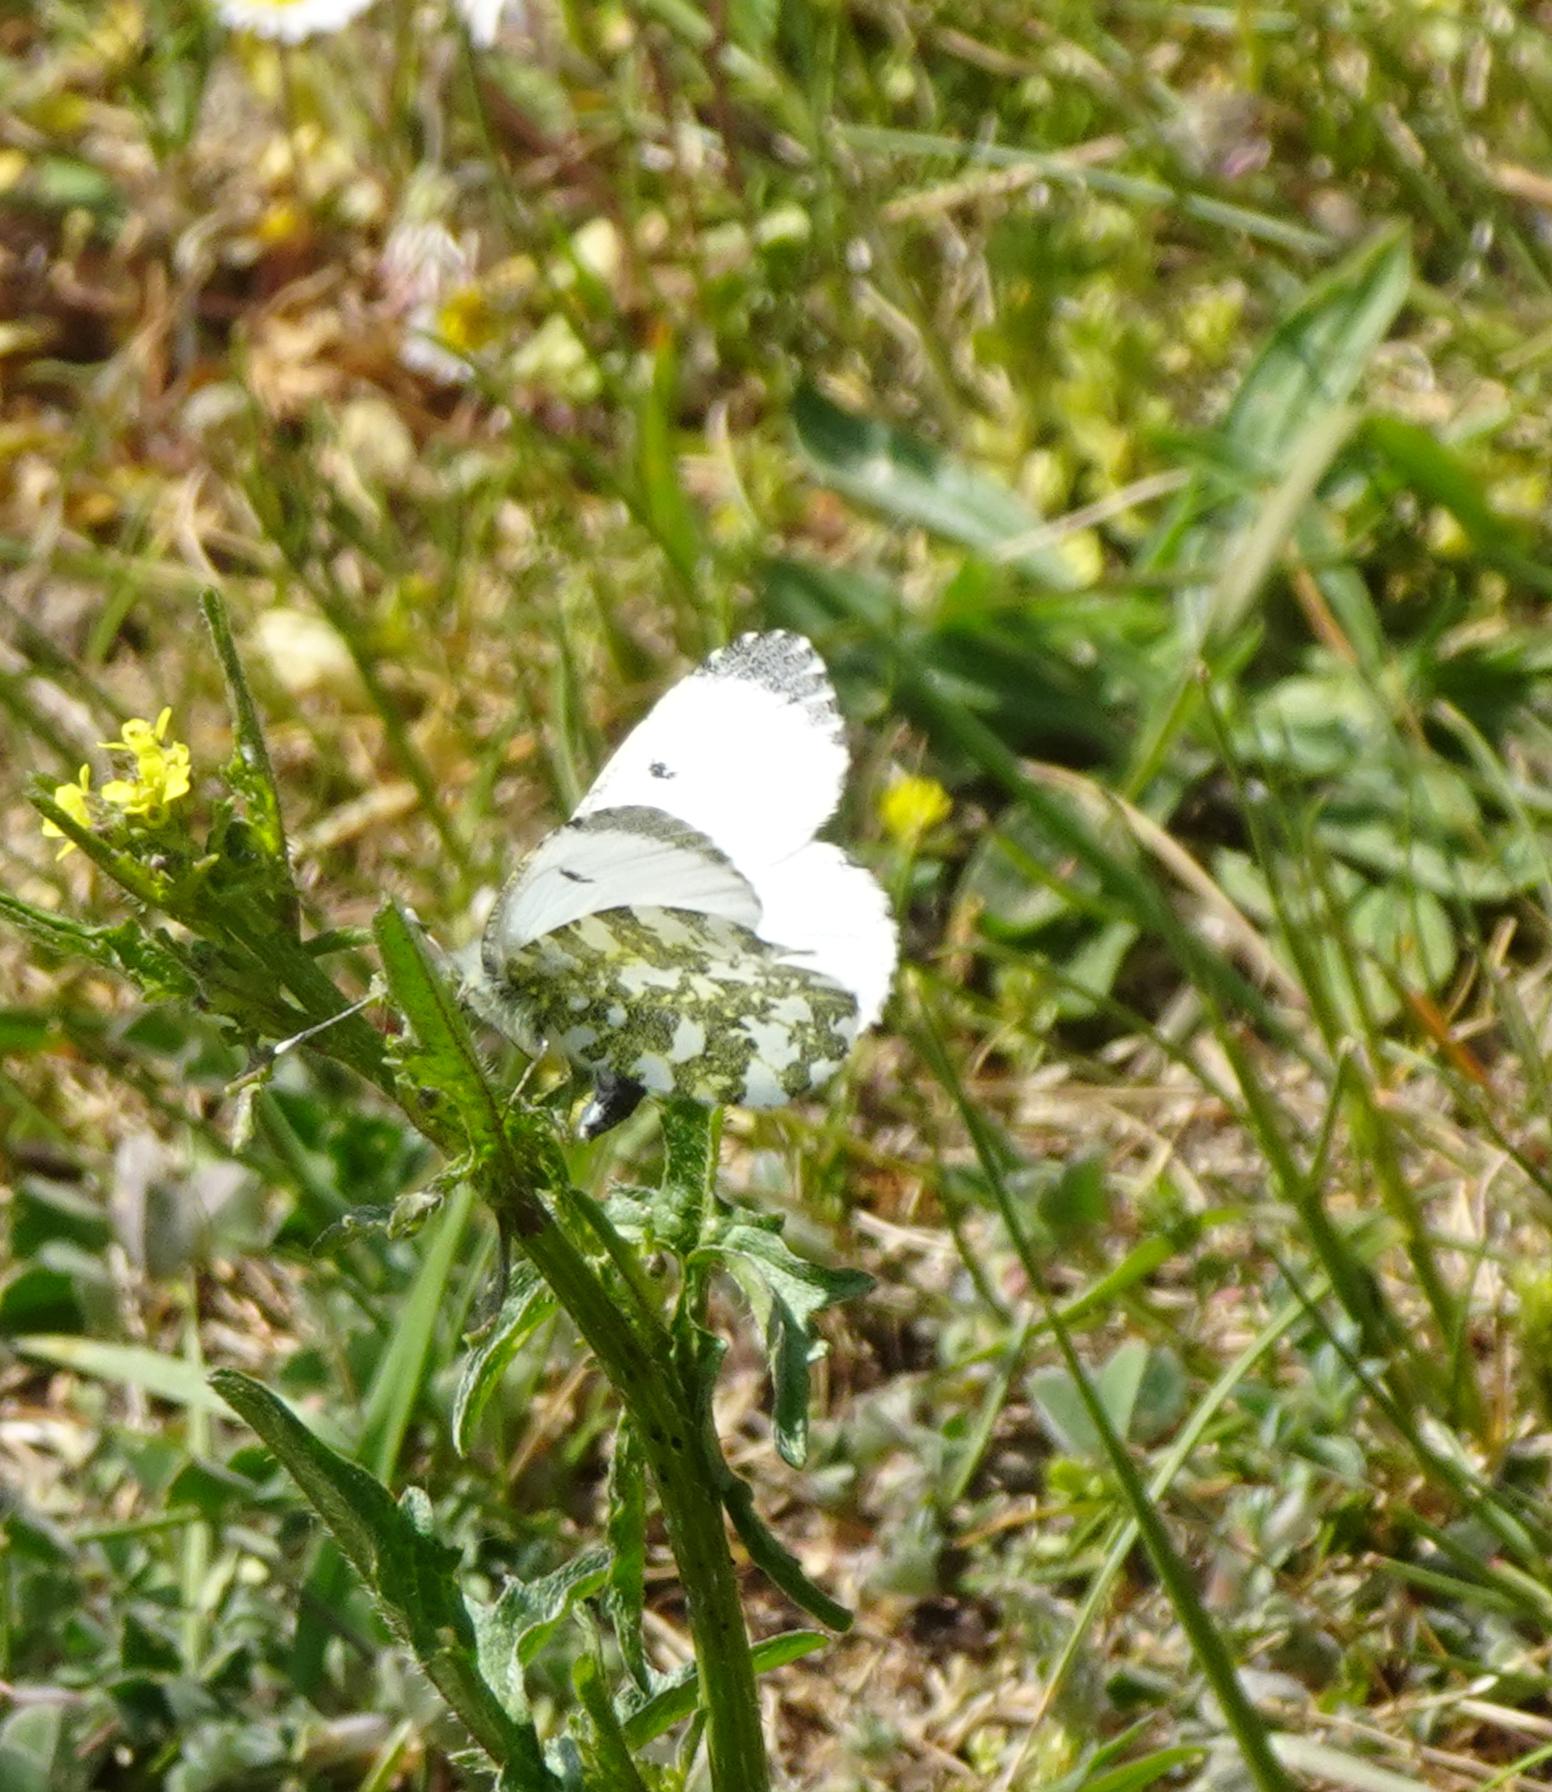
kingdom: Animalia
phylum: Arthropoda
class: Insecta
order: Lepidoptera
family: Pieridae
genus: Anthocharis
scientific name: Anthocharis cardamines
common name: Aurora
